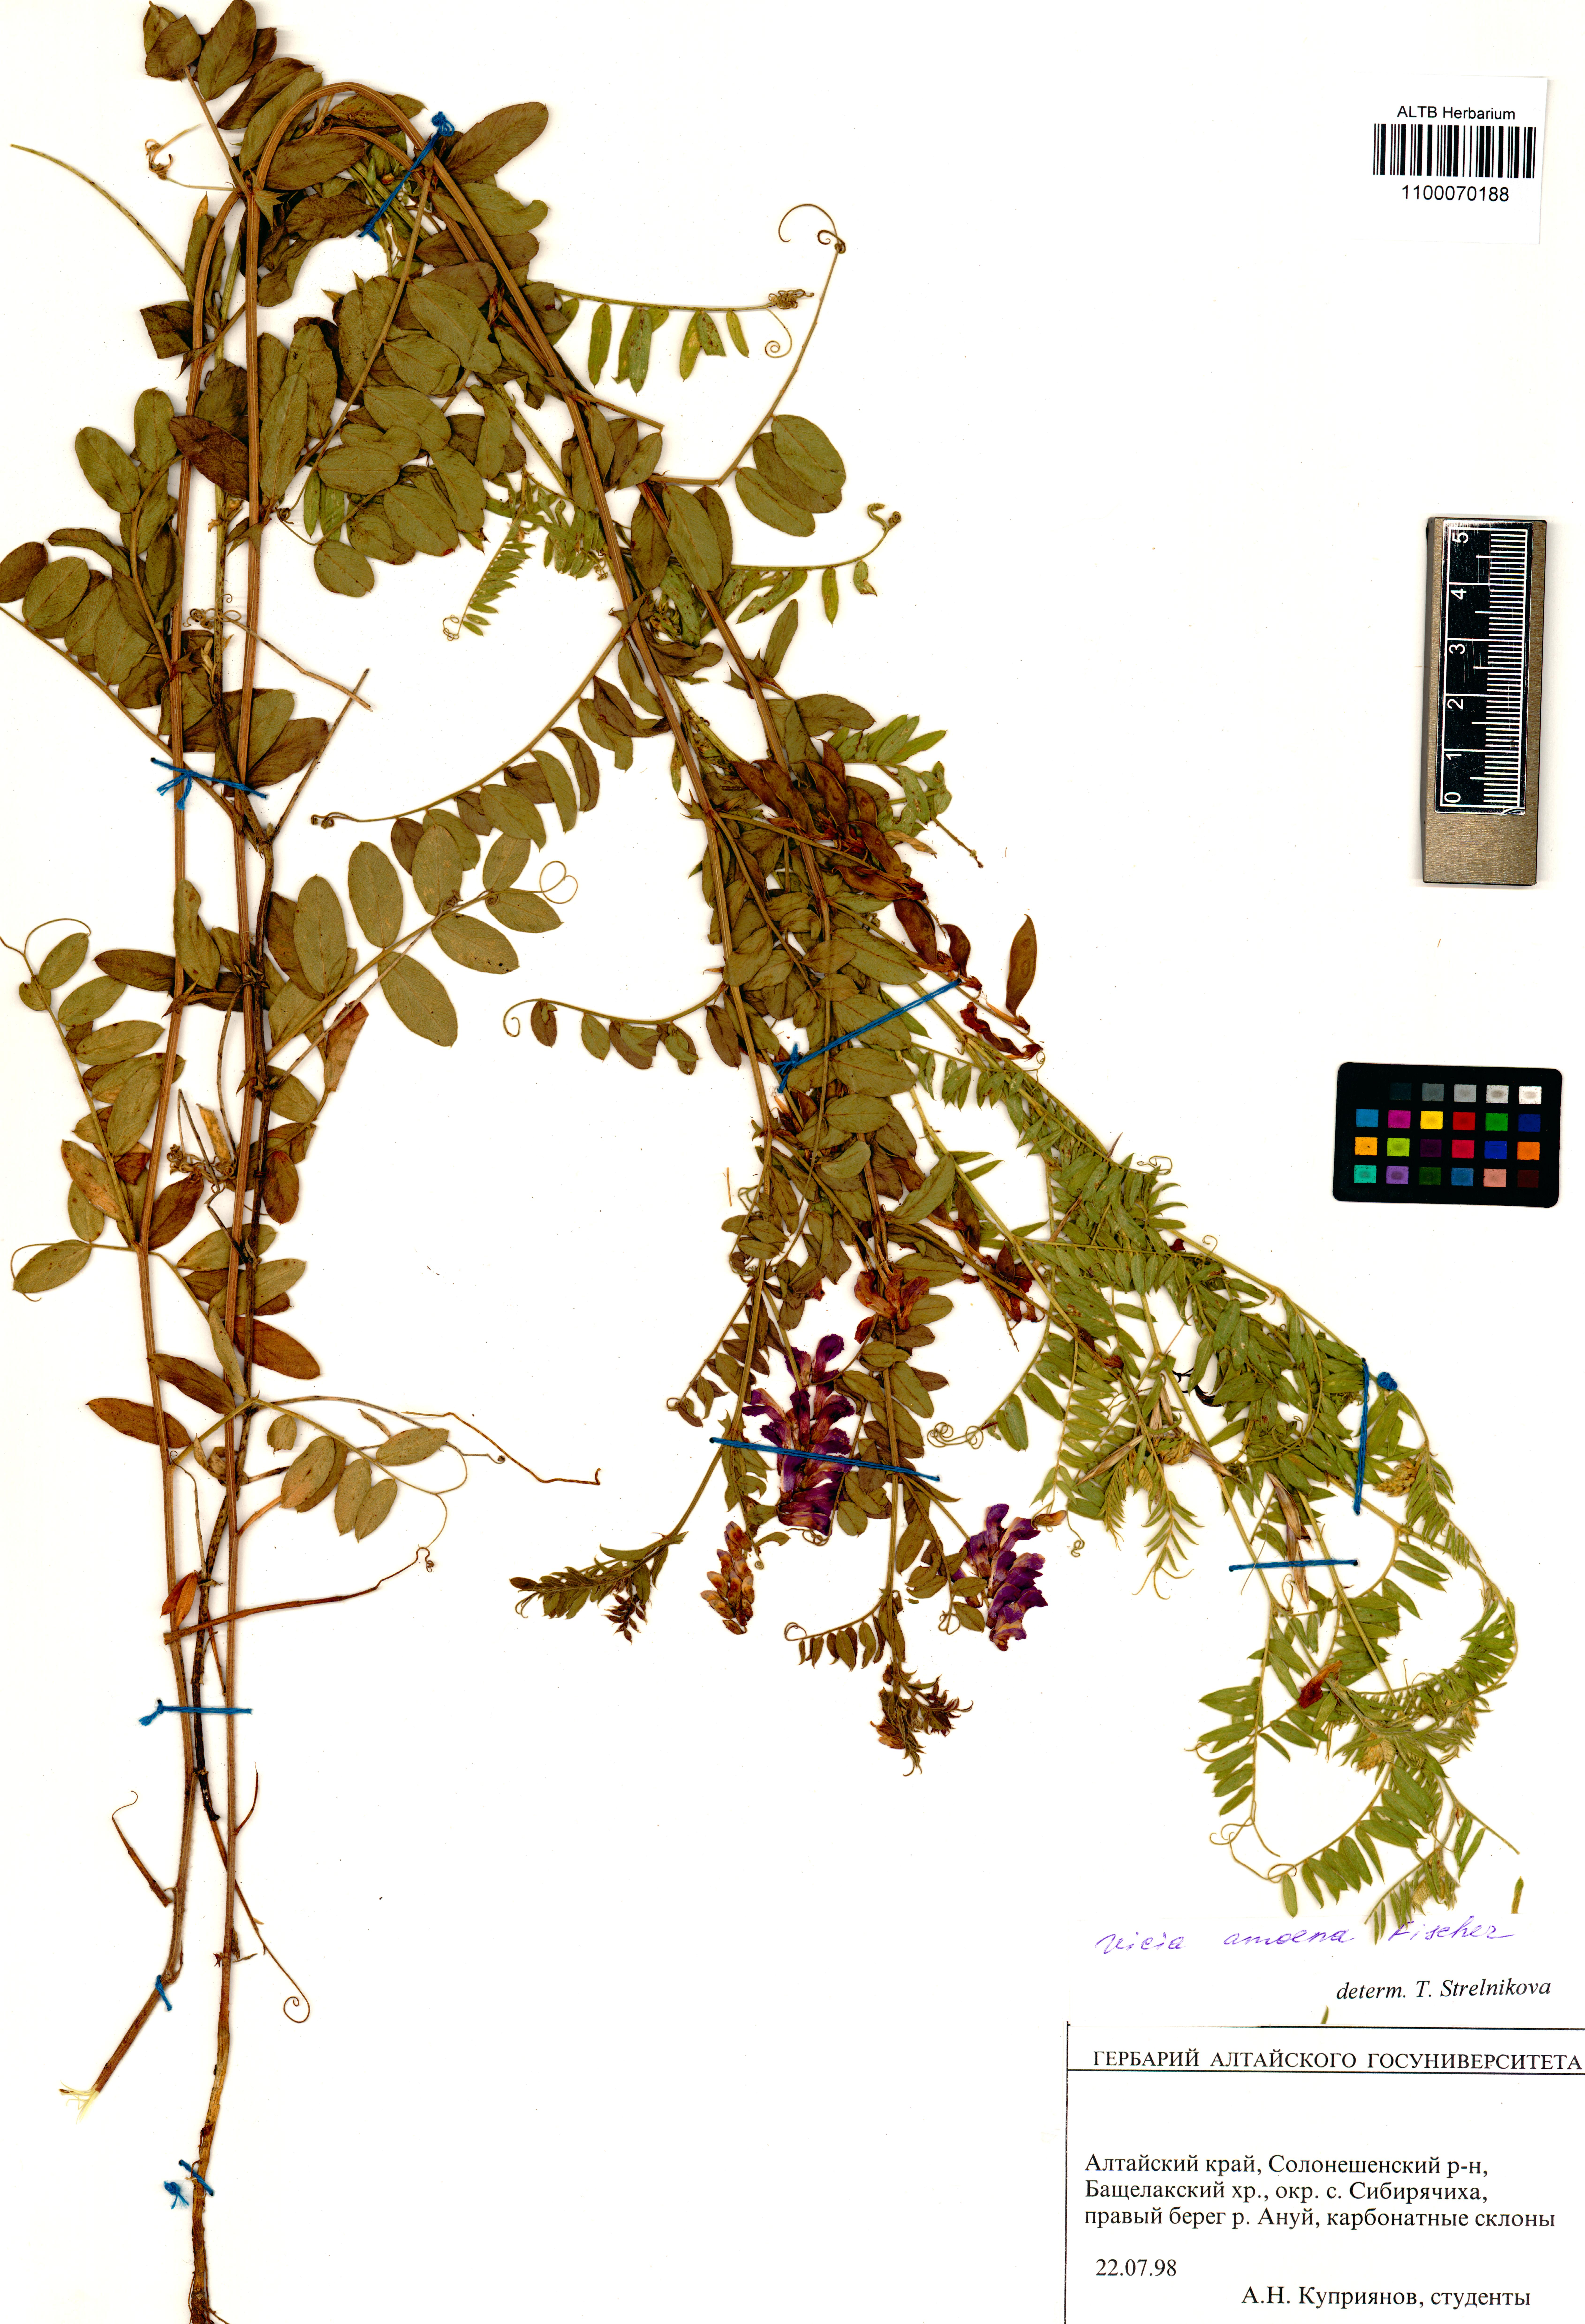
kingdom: Plantae
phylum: Tracheophyta
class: Magnoliopsida
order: Fabales
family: Fabaceae
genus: Vicia
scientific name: Vicia amoena
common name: Cheder ebs
